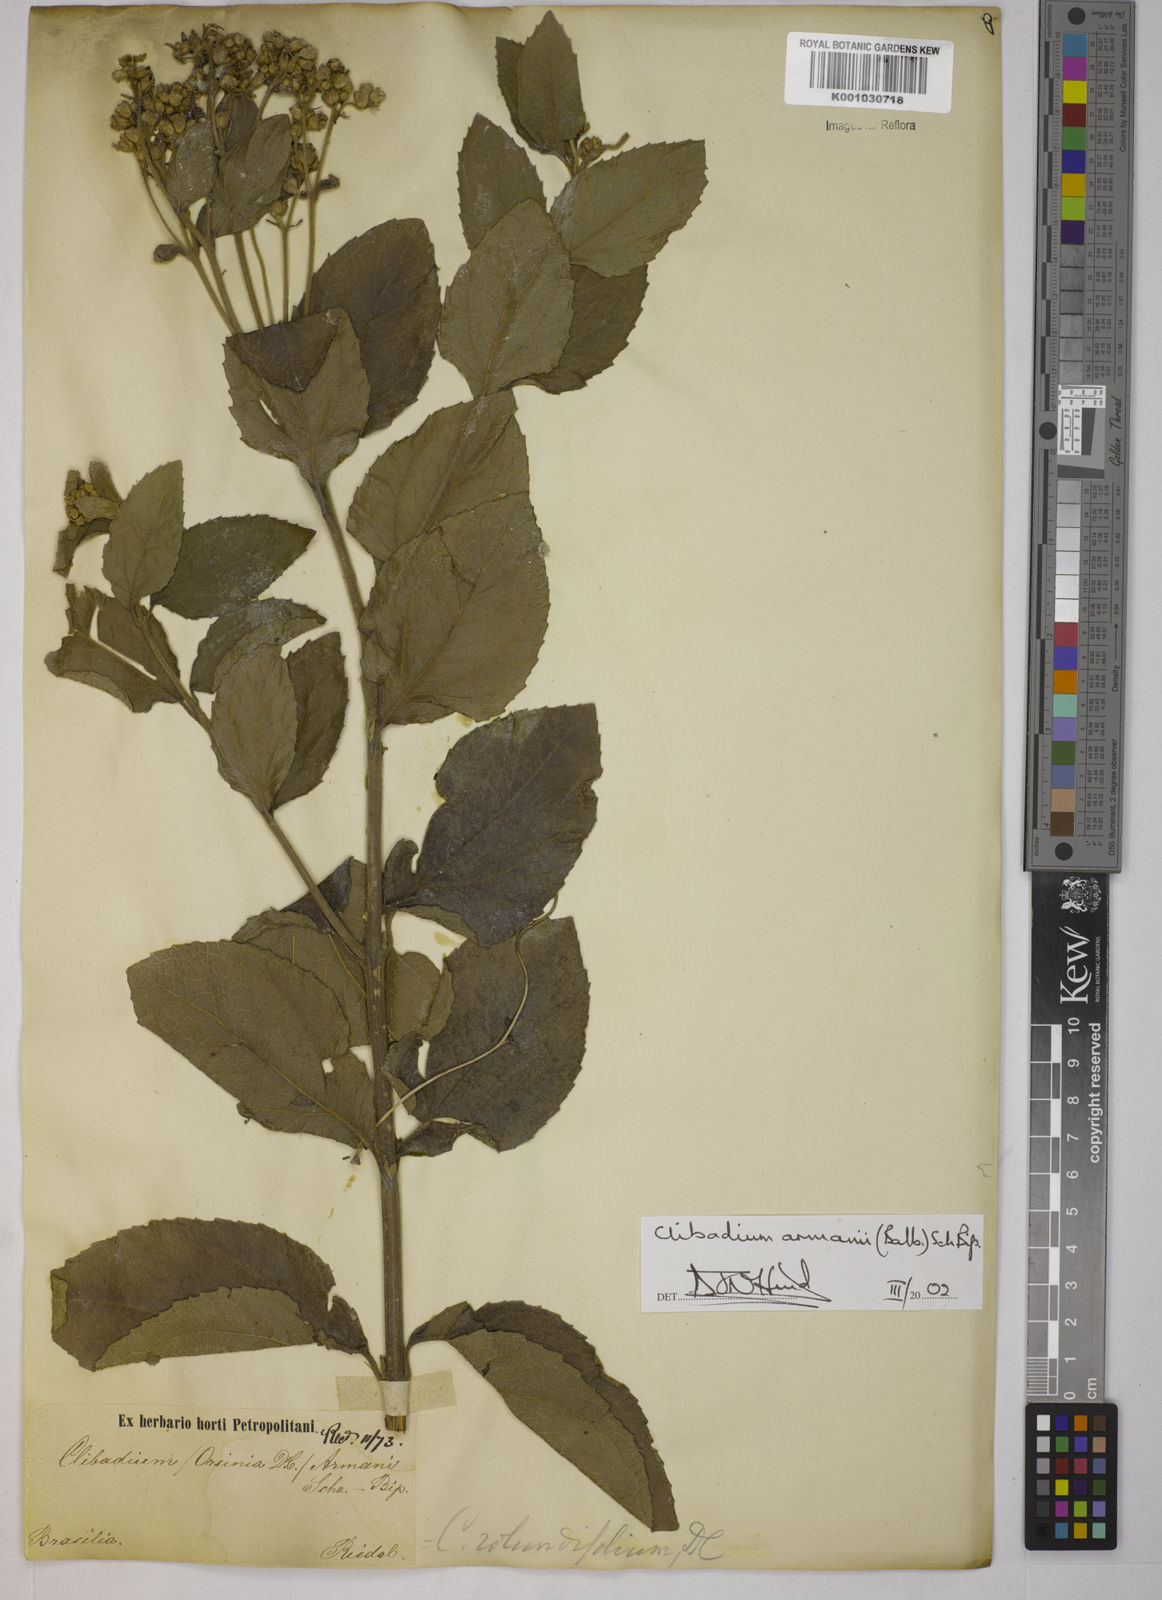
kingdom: Plantae
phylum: Tracheophyta
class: Magnoliopsida
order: Asterales
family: Asteraceae
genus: Clibadium
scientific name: Clibadium armanii
